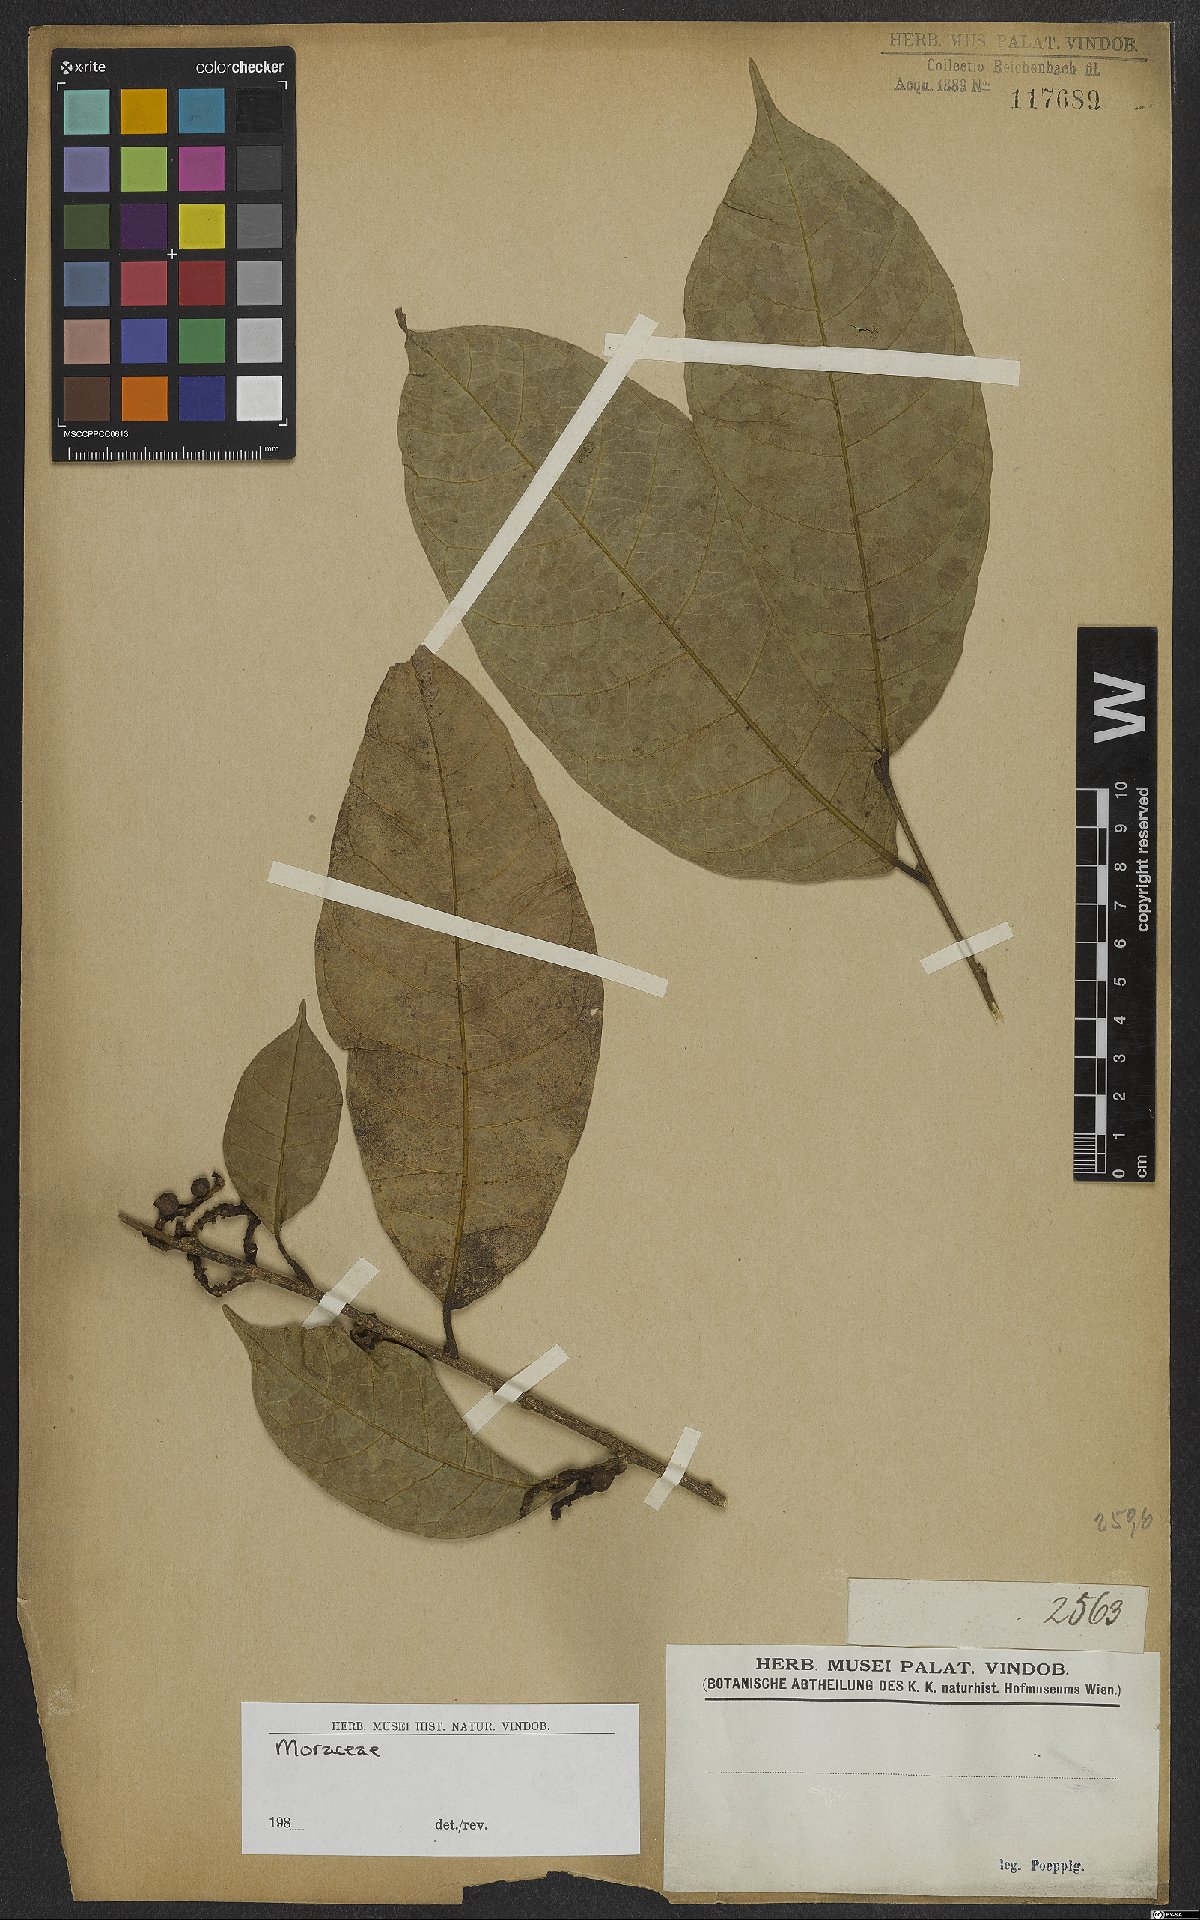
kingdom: Plantae
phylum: Tracheophyta
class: Magnoliopsida
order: Rosales
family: Moraceae
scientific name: Moraceae
